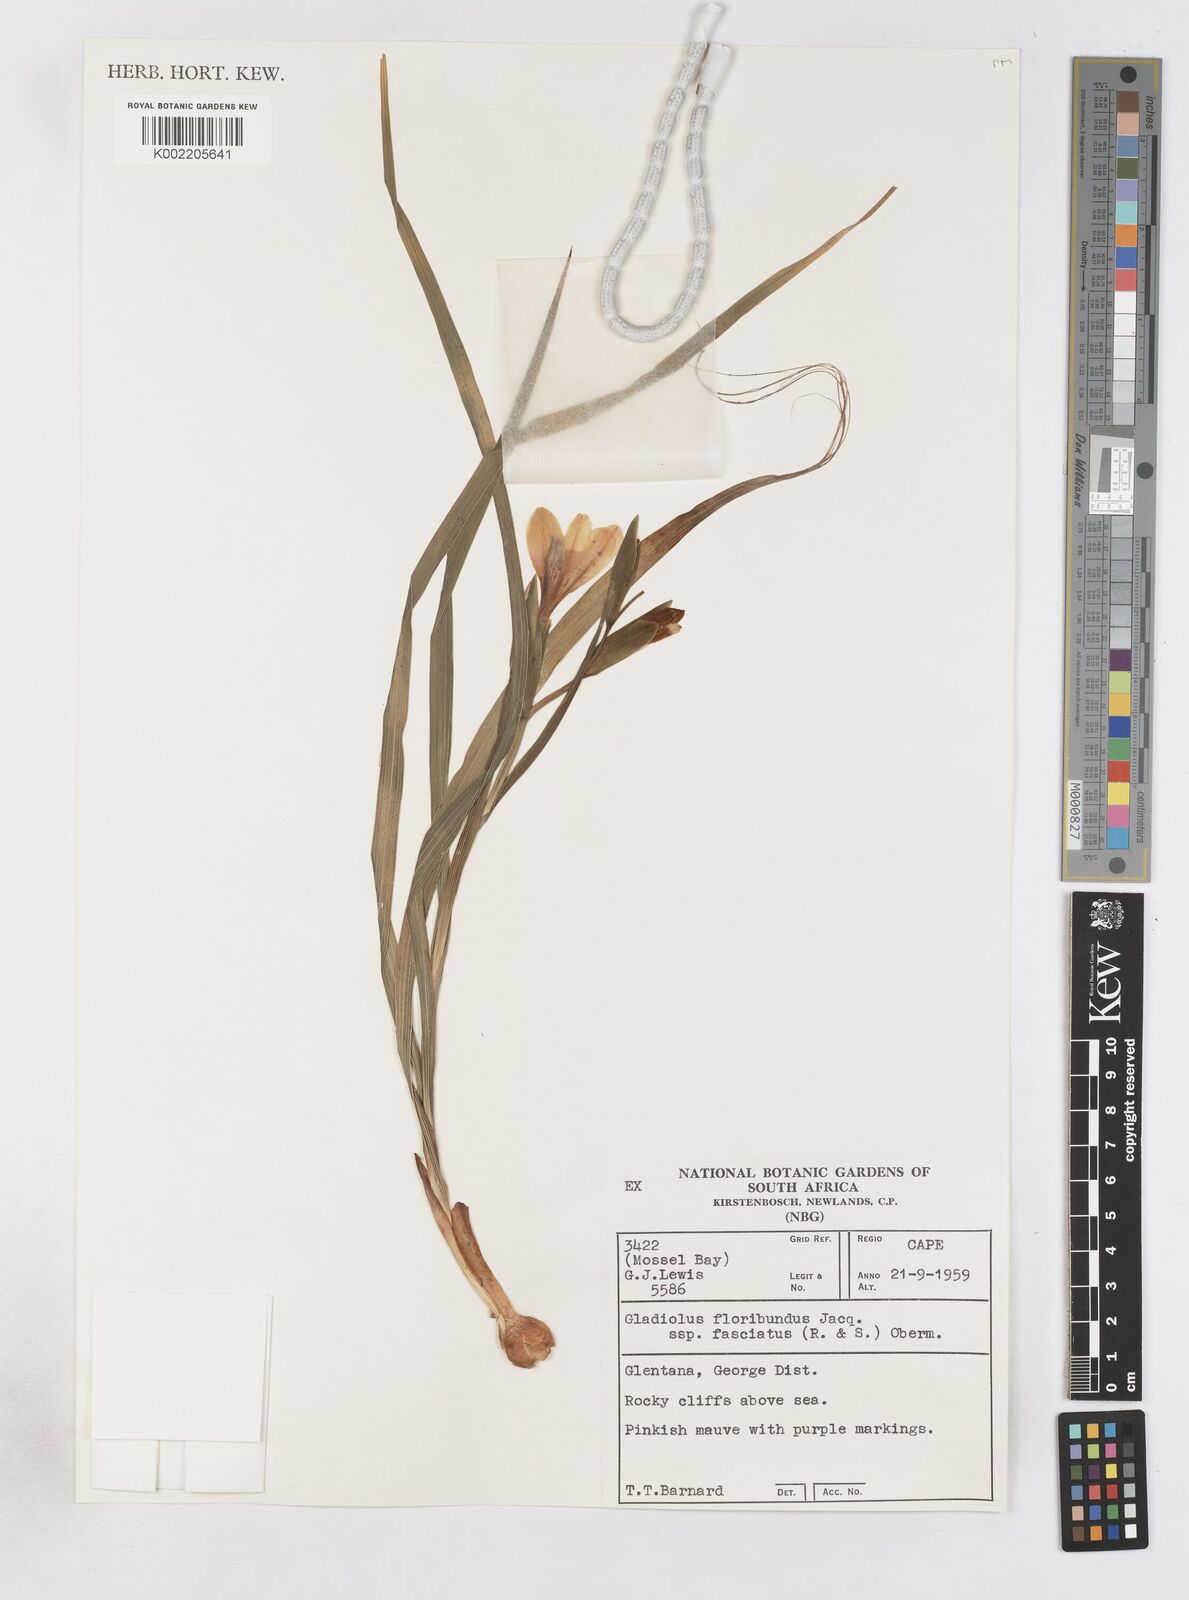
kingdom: Plantae
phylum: Tracheophyta
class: Liliopsida
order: Asparagales
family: Iridaceae
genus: Gladiolus
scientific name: Gladiolus grandiflorus
